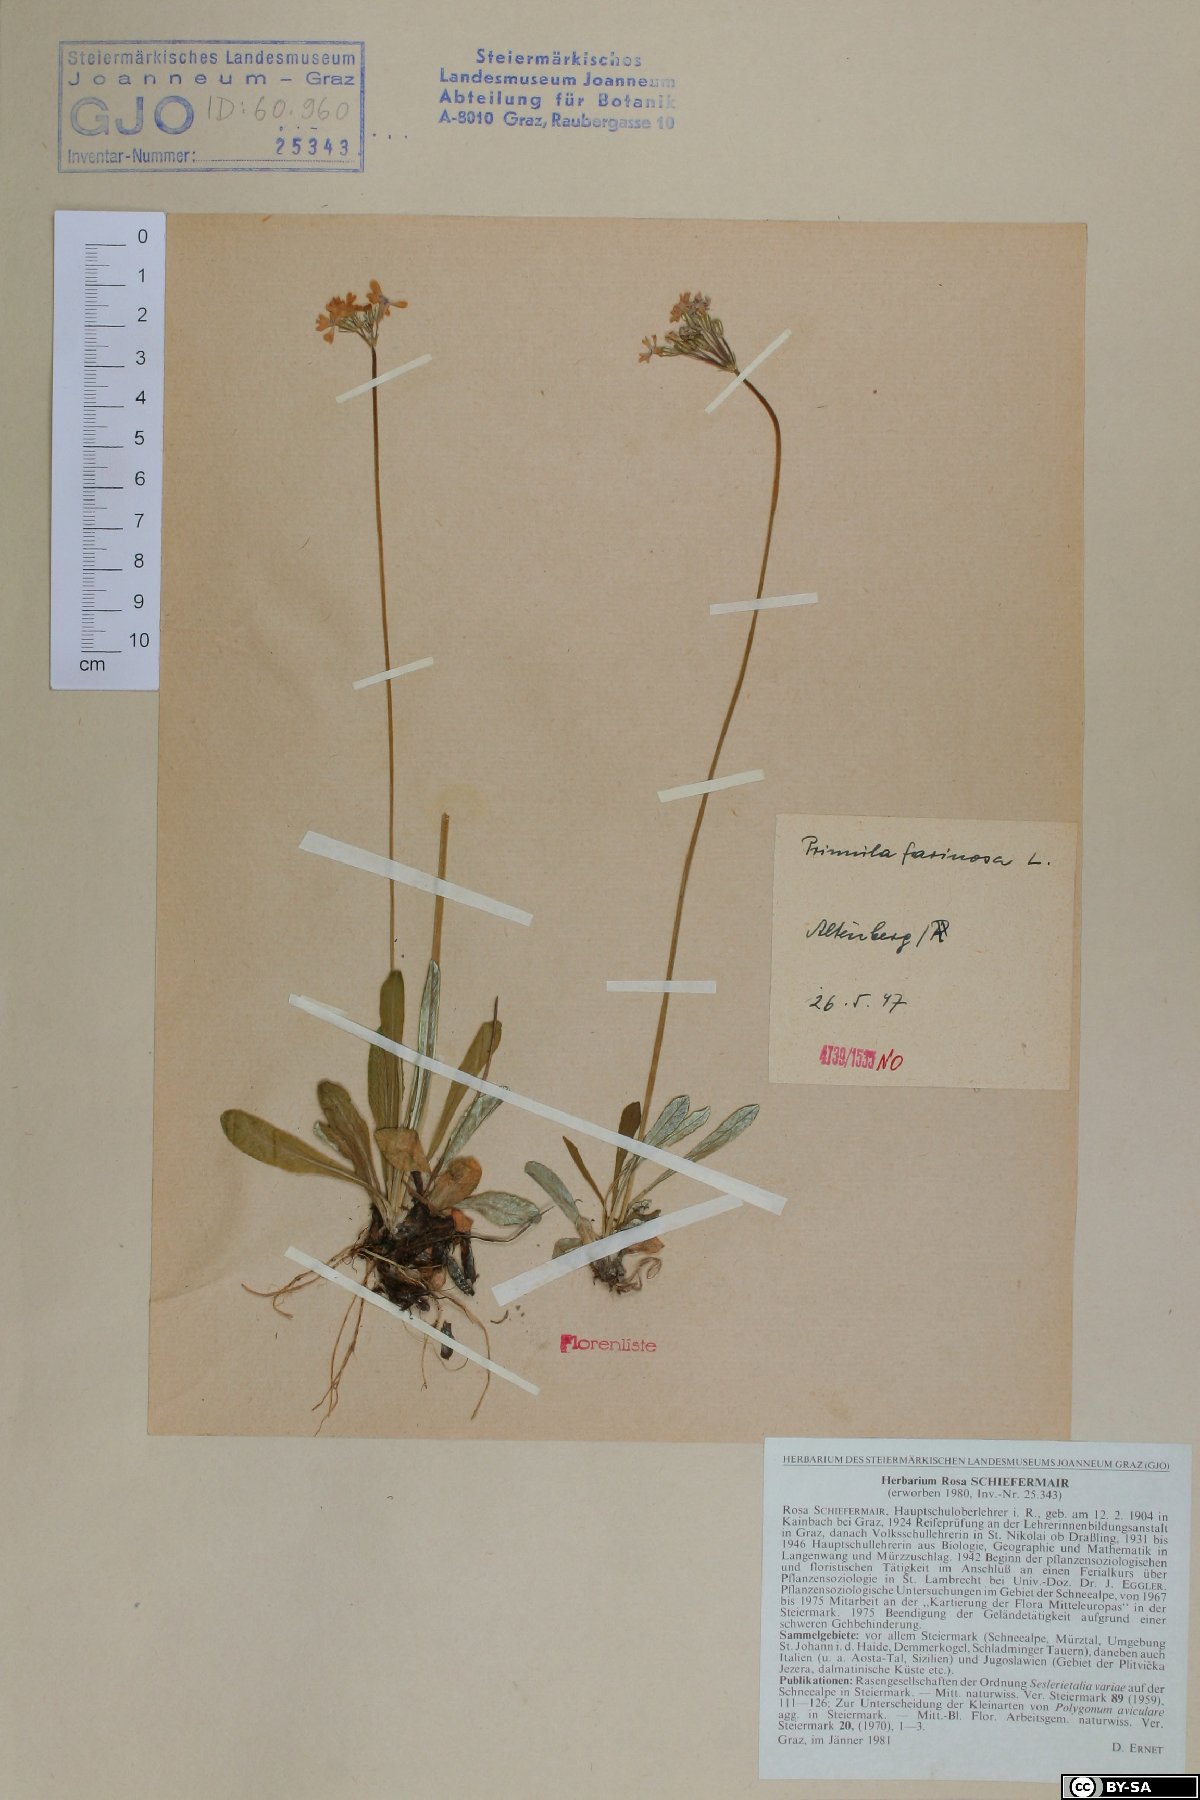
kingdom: Plantae
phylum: Tracheophyta
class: Magnoliopsida
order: Ericales
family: Primulaceae
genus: Primula
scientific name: Primula farinosa
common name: Bird's-eye primrose
